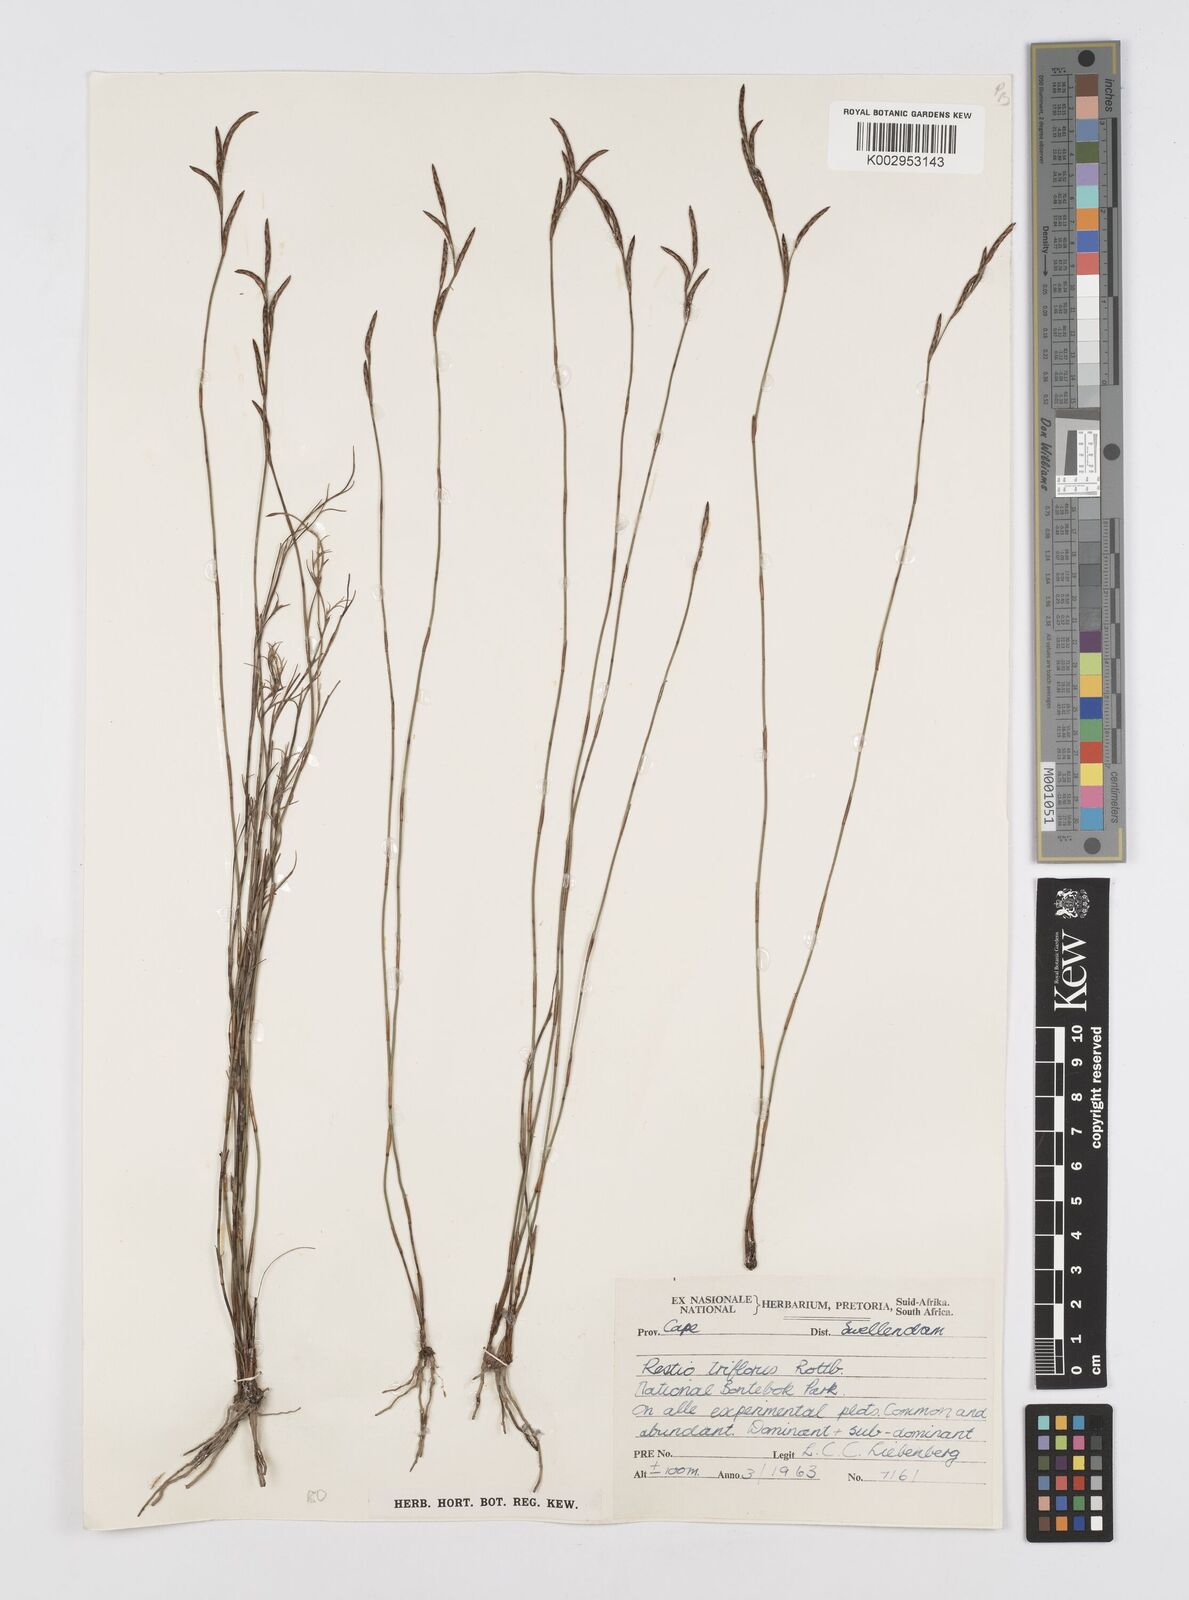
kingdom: Plantae
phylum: Tracheophyta
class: Liliopsida
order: Poales
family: Restionaceae
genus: Restio
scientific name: Restio triflorus
